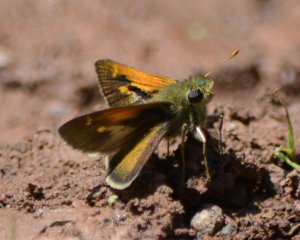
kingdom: Animalia
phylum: Arthropoda
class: Insecta
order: Lepidoptera
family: Hesperiidae
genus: Polites
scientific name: Polites themistocles
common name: Tawny-edged Skipper
